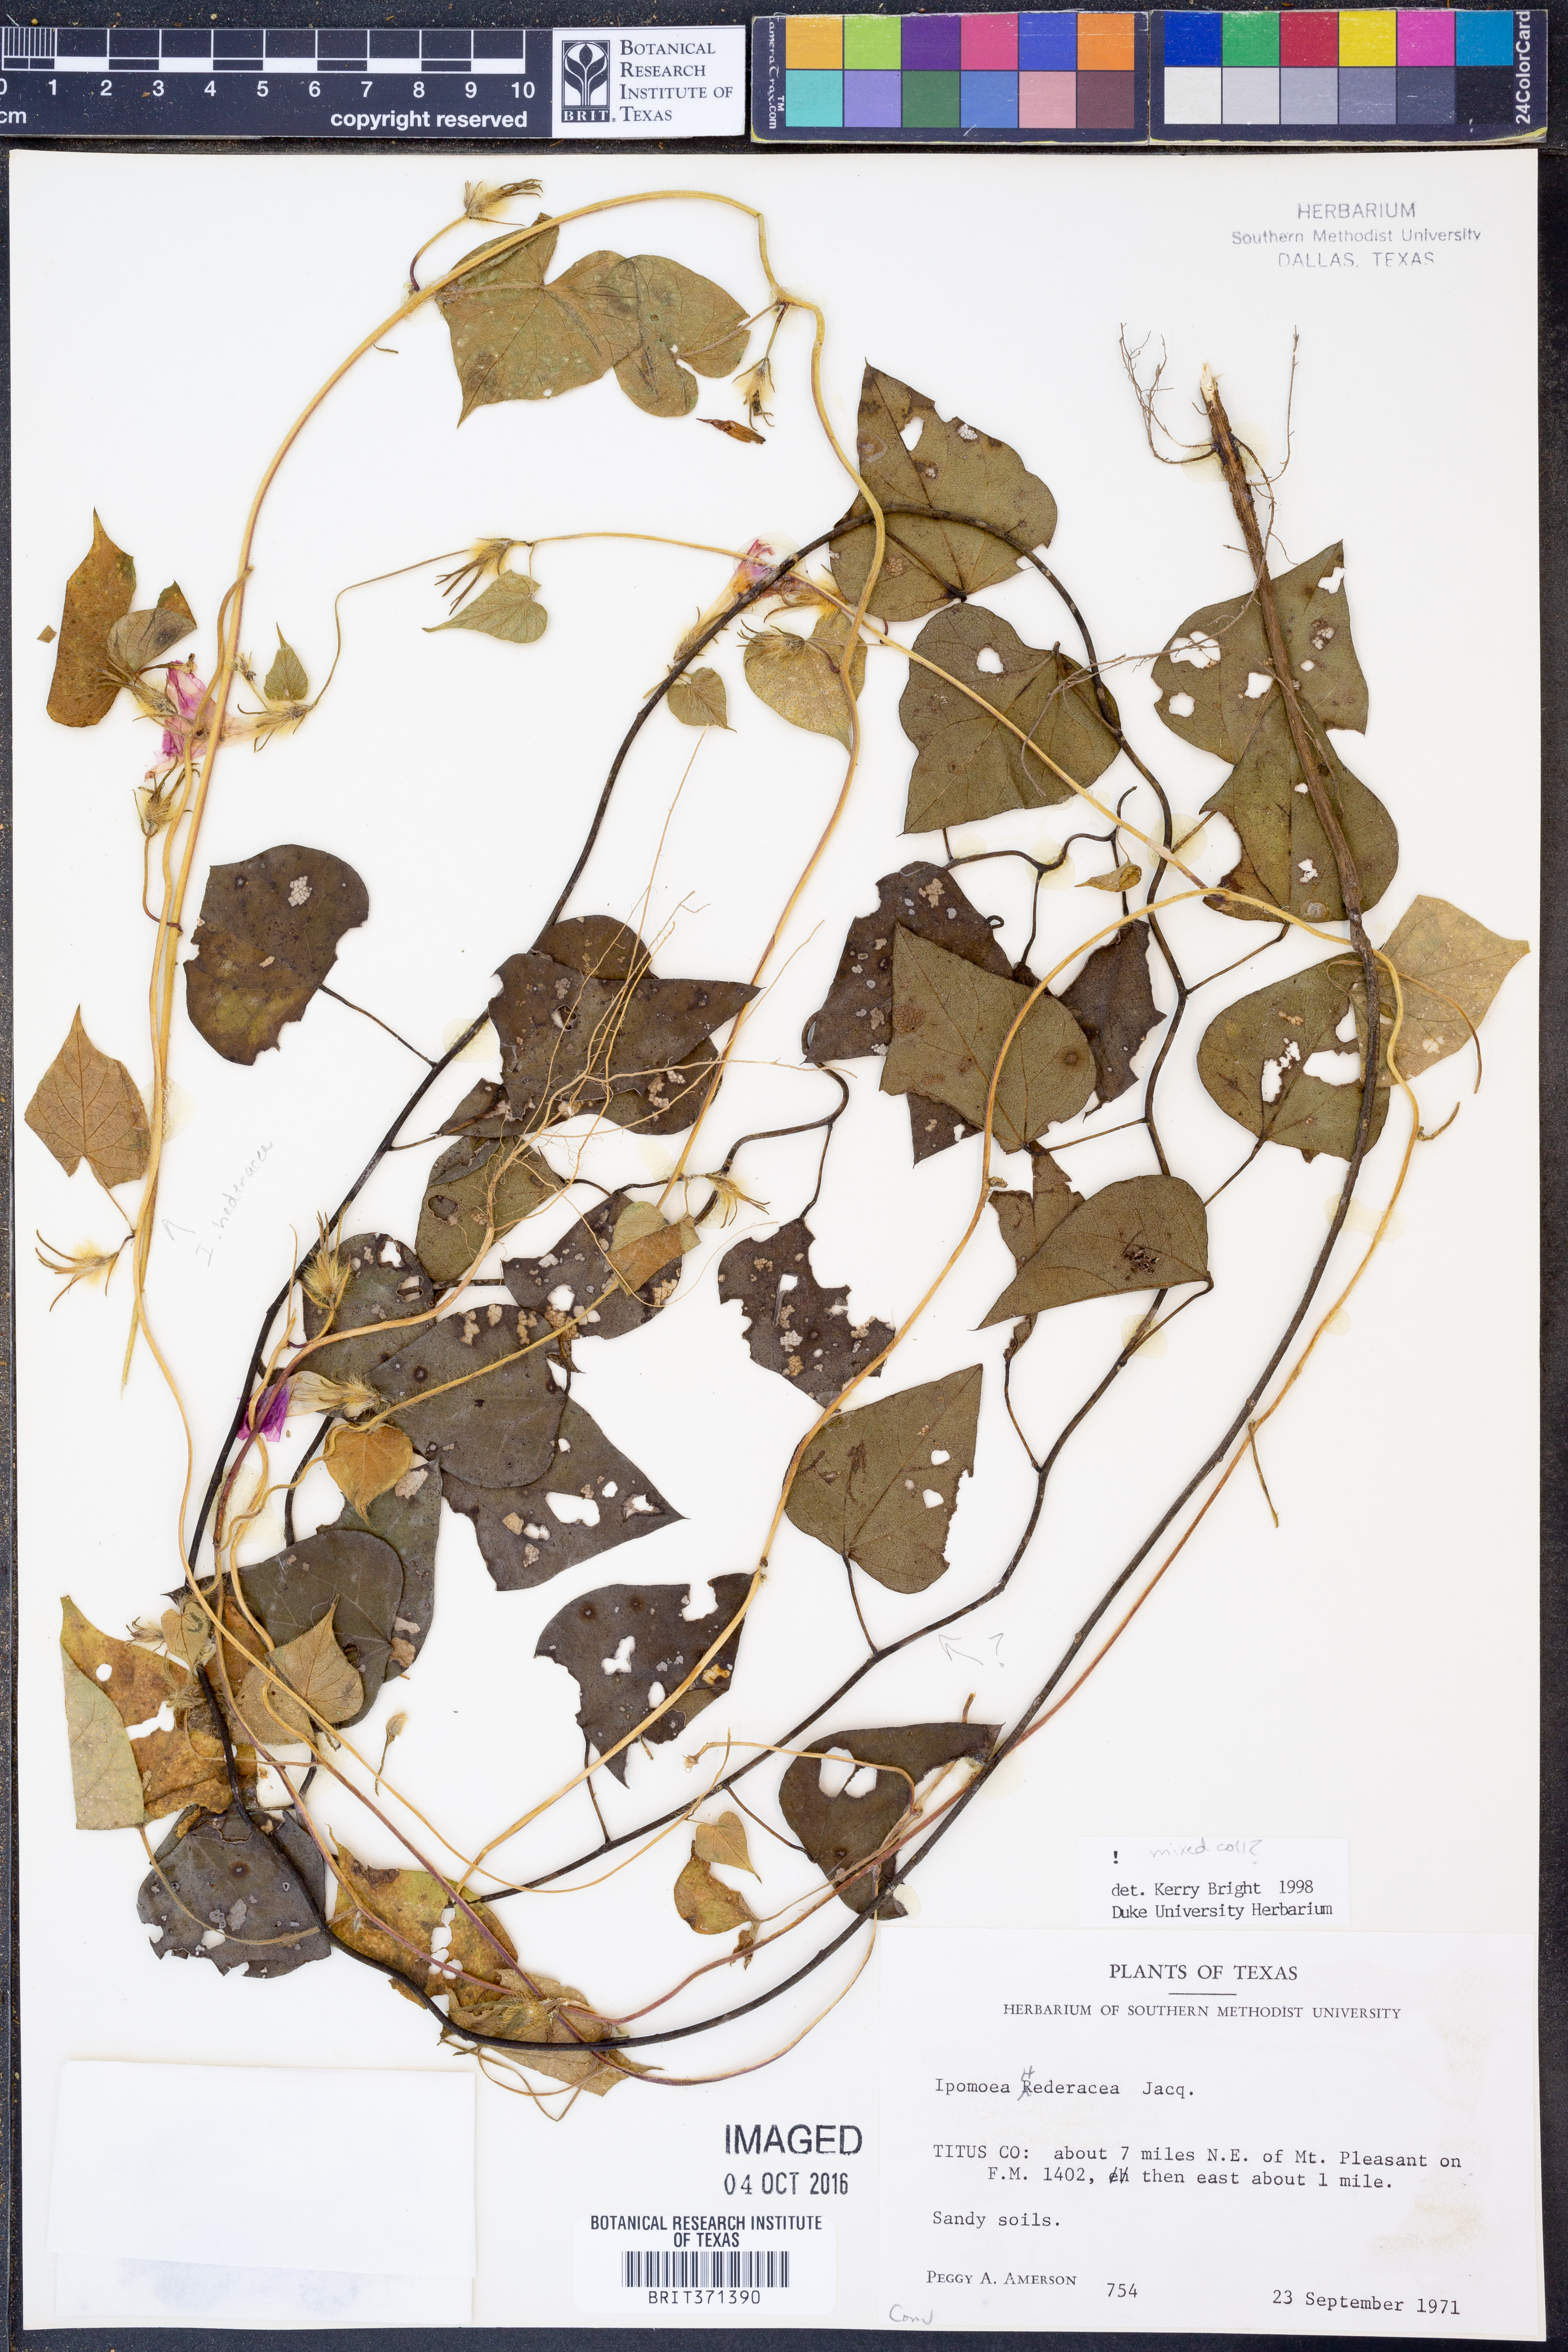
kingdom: Plantae
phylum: Tracheophyta
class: Magnoliopsida
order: Solanales
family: Convolvulaceae
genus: Ipomoea
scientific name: Ipomoea hederacea
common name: Ivy-leaved morning-glory
